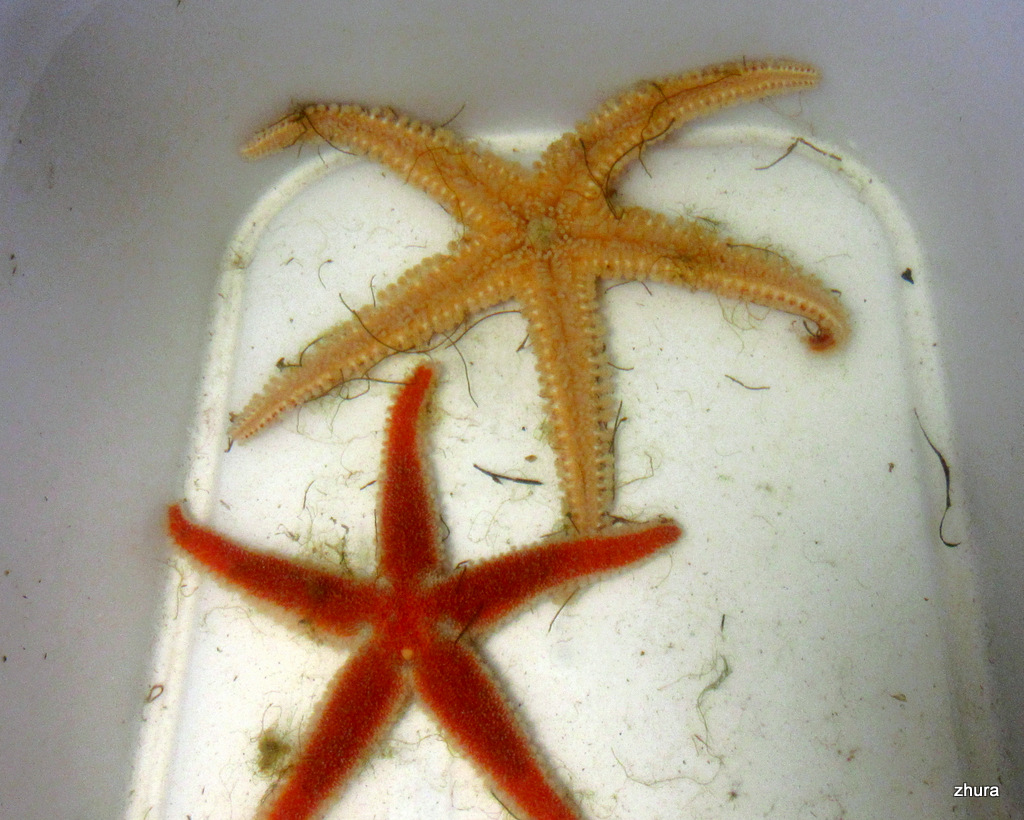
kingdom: Animalia
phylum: Echinodermata
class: Asteroidea
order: Forcipulatida
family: Asteriidae
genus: Urasterias
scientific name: Urasterias lincki
